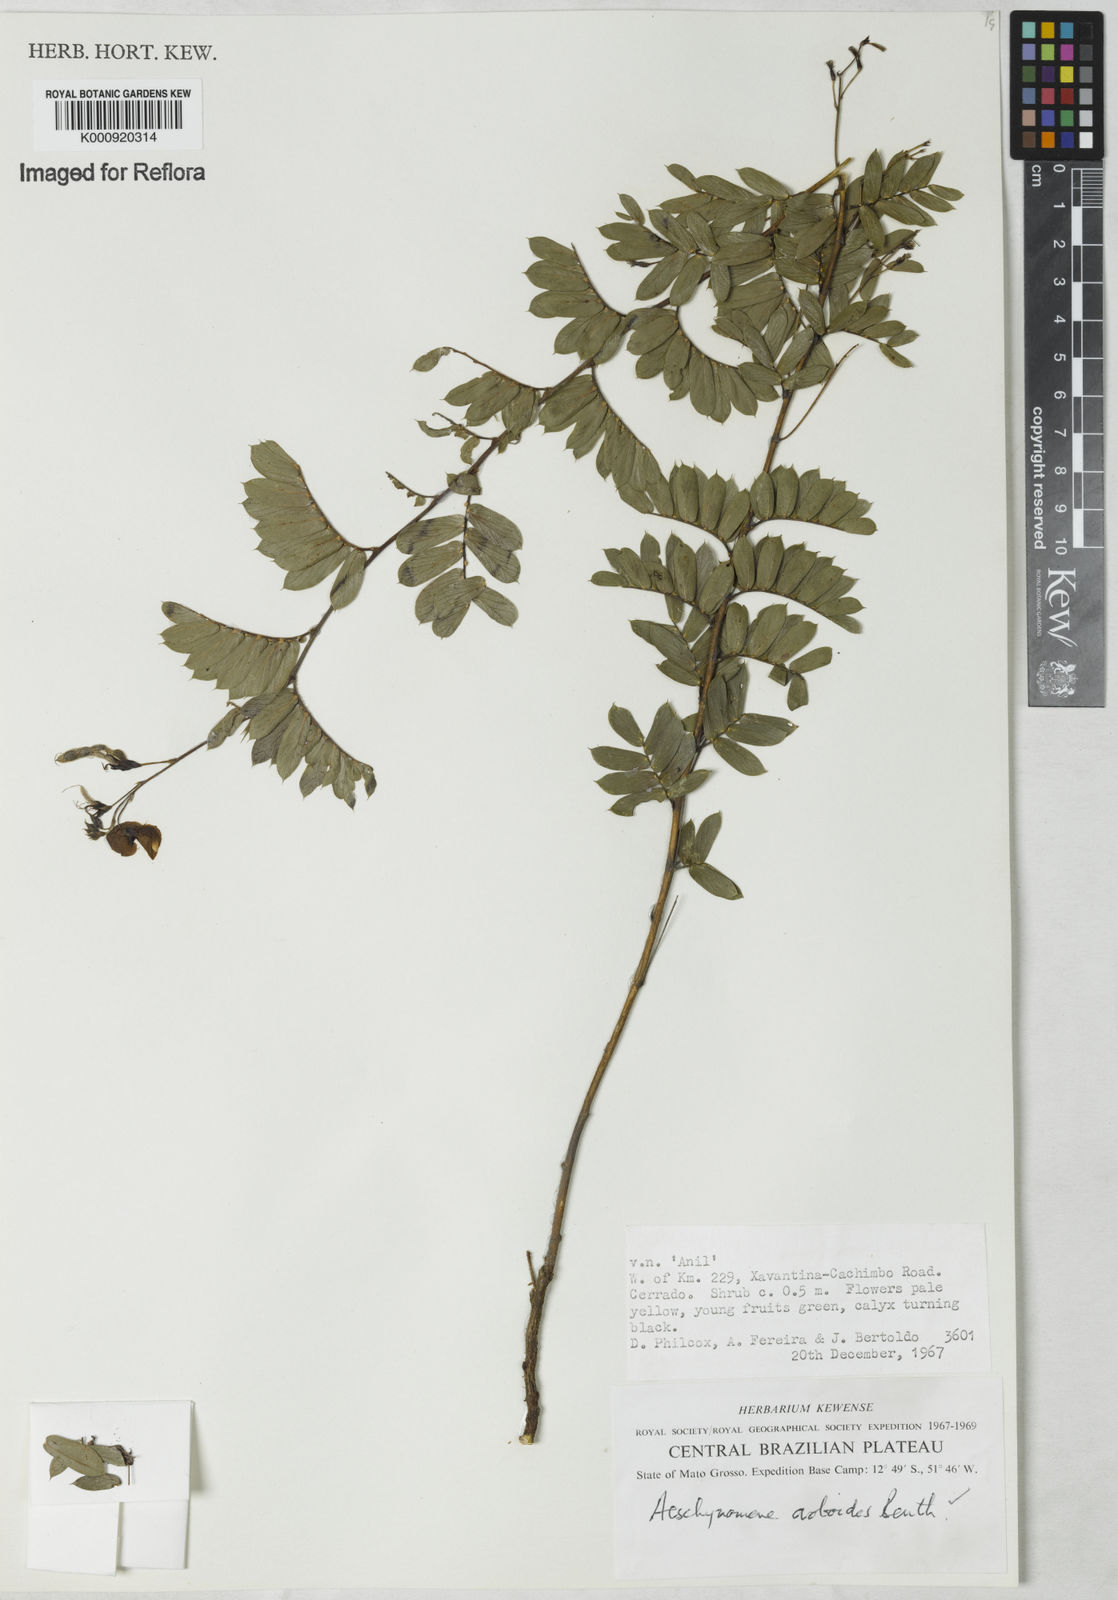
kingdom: Plantae
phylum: Tracheophyta
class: Magnoliopsida
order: Fabales
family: Fabaceae
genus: Ctenodon
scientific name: Ctenodon oroboides
